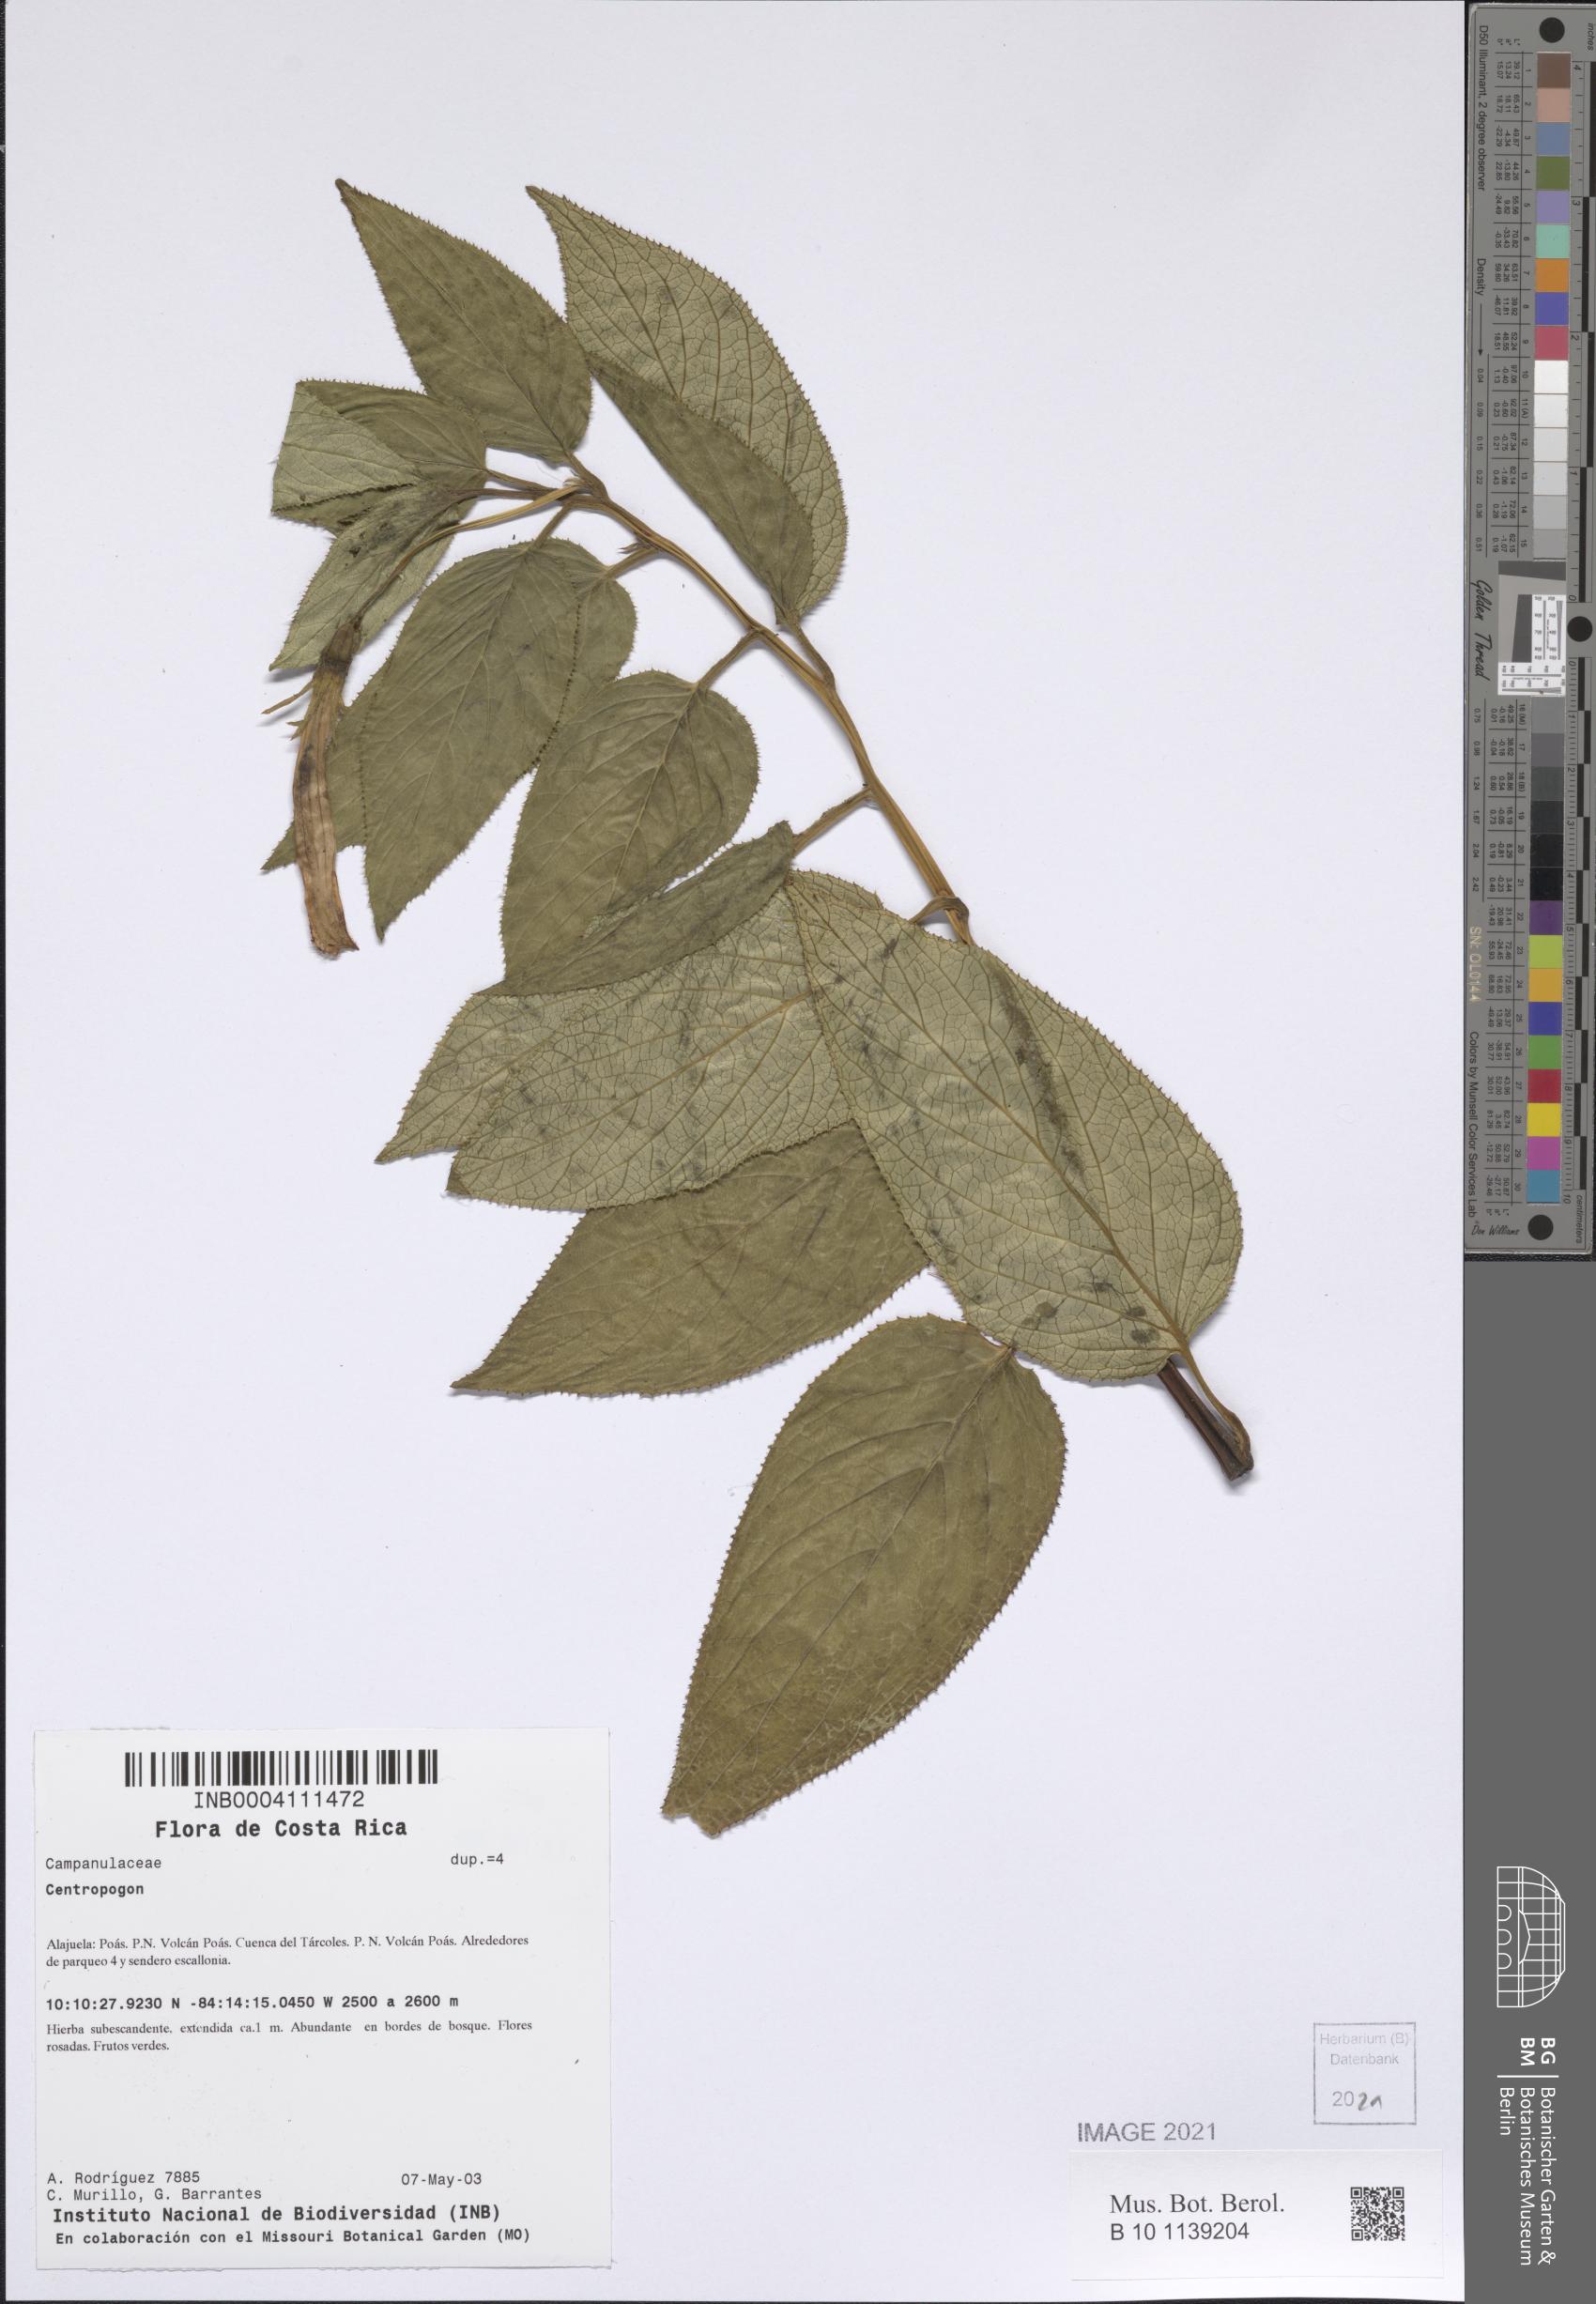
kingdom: Plantae
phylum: Tracheophyta
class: Magnoliopsida
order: Asterales
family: Campanulaceae
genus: Centropogon
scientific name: Centropogon gutierrezii
